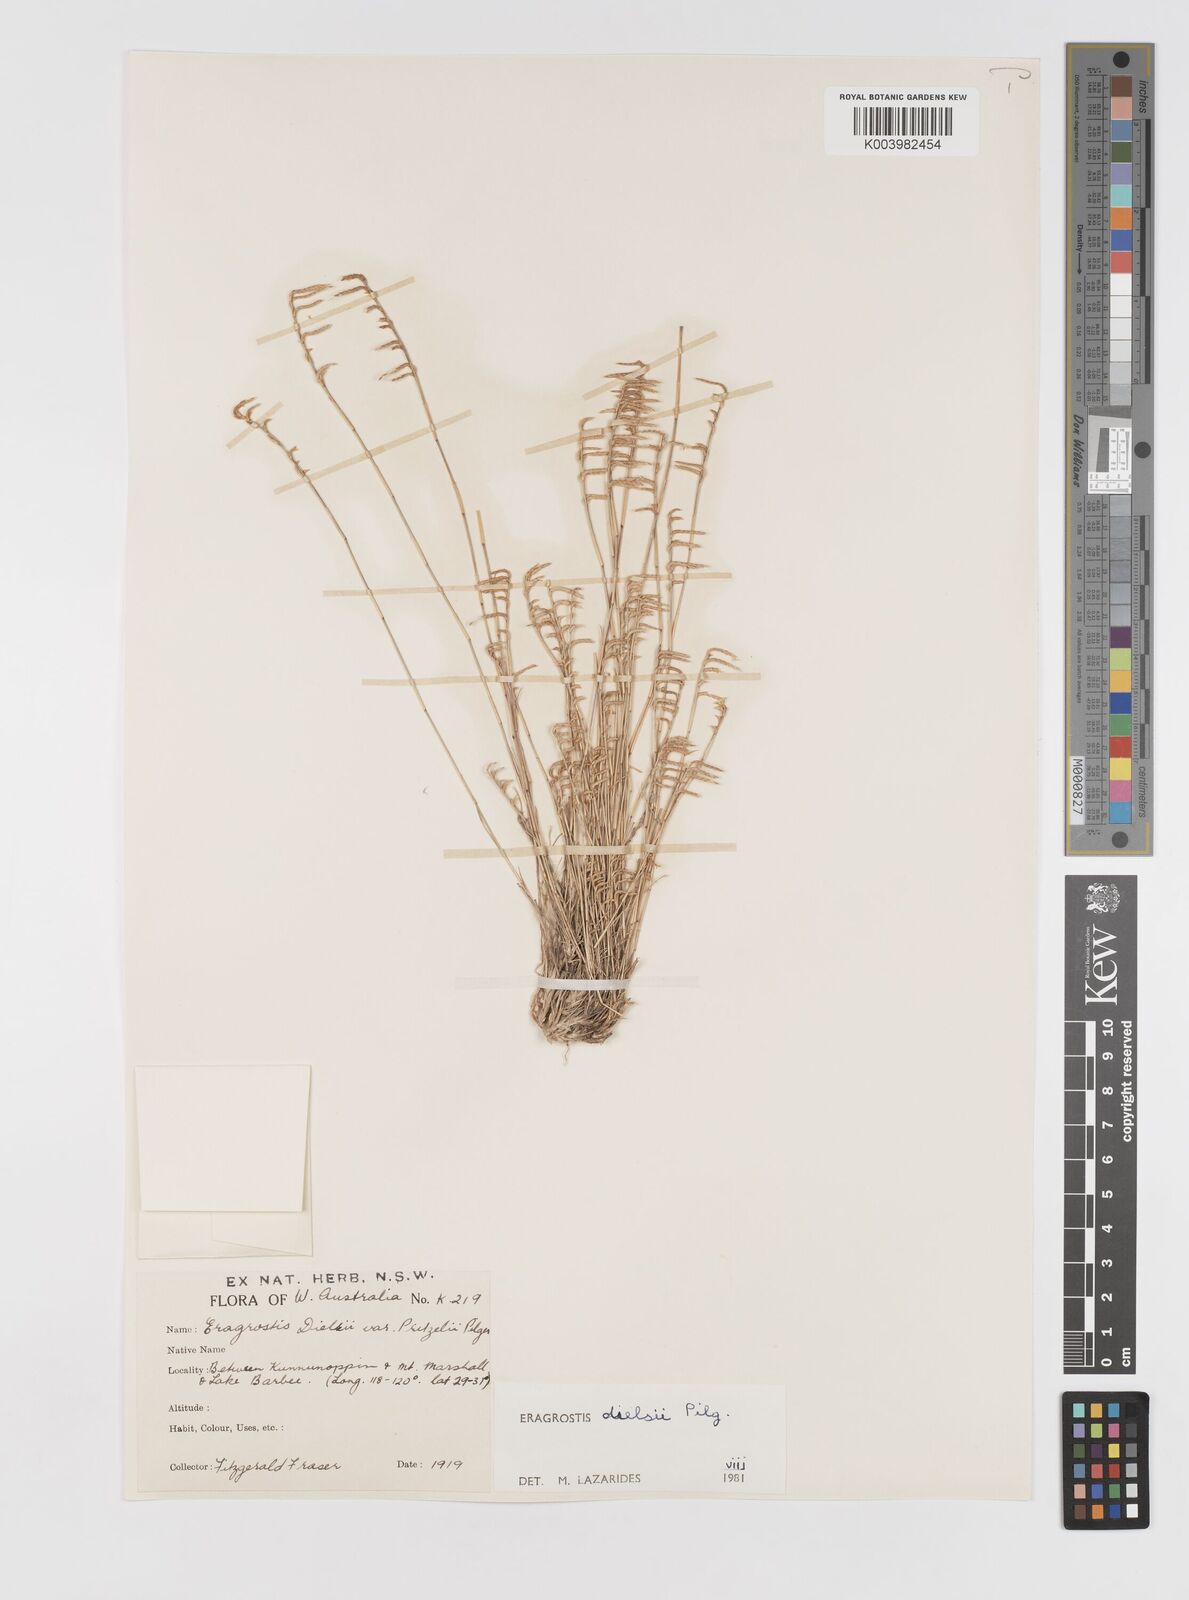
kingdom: Plantae
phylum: Tracheophyta
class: Liliopsida
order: Poales
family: Poaceae
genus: Eragrostis
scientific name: Eragrostis dielsii
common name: Lovegrass
